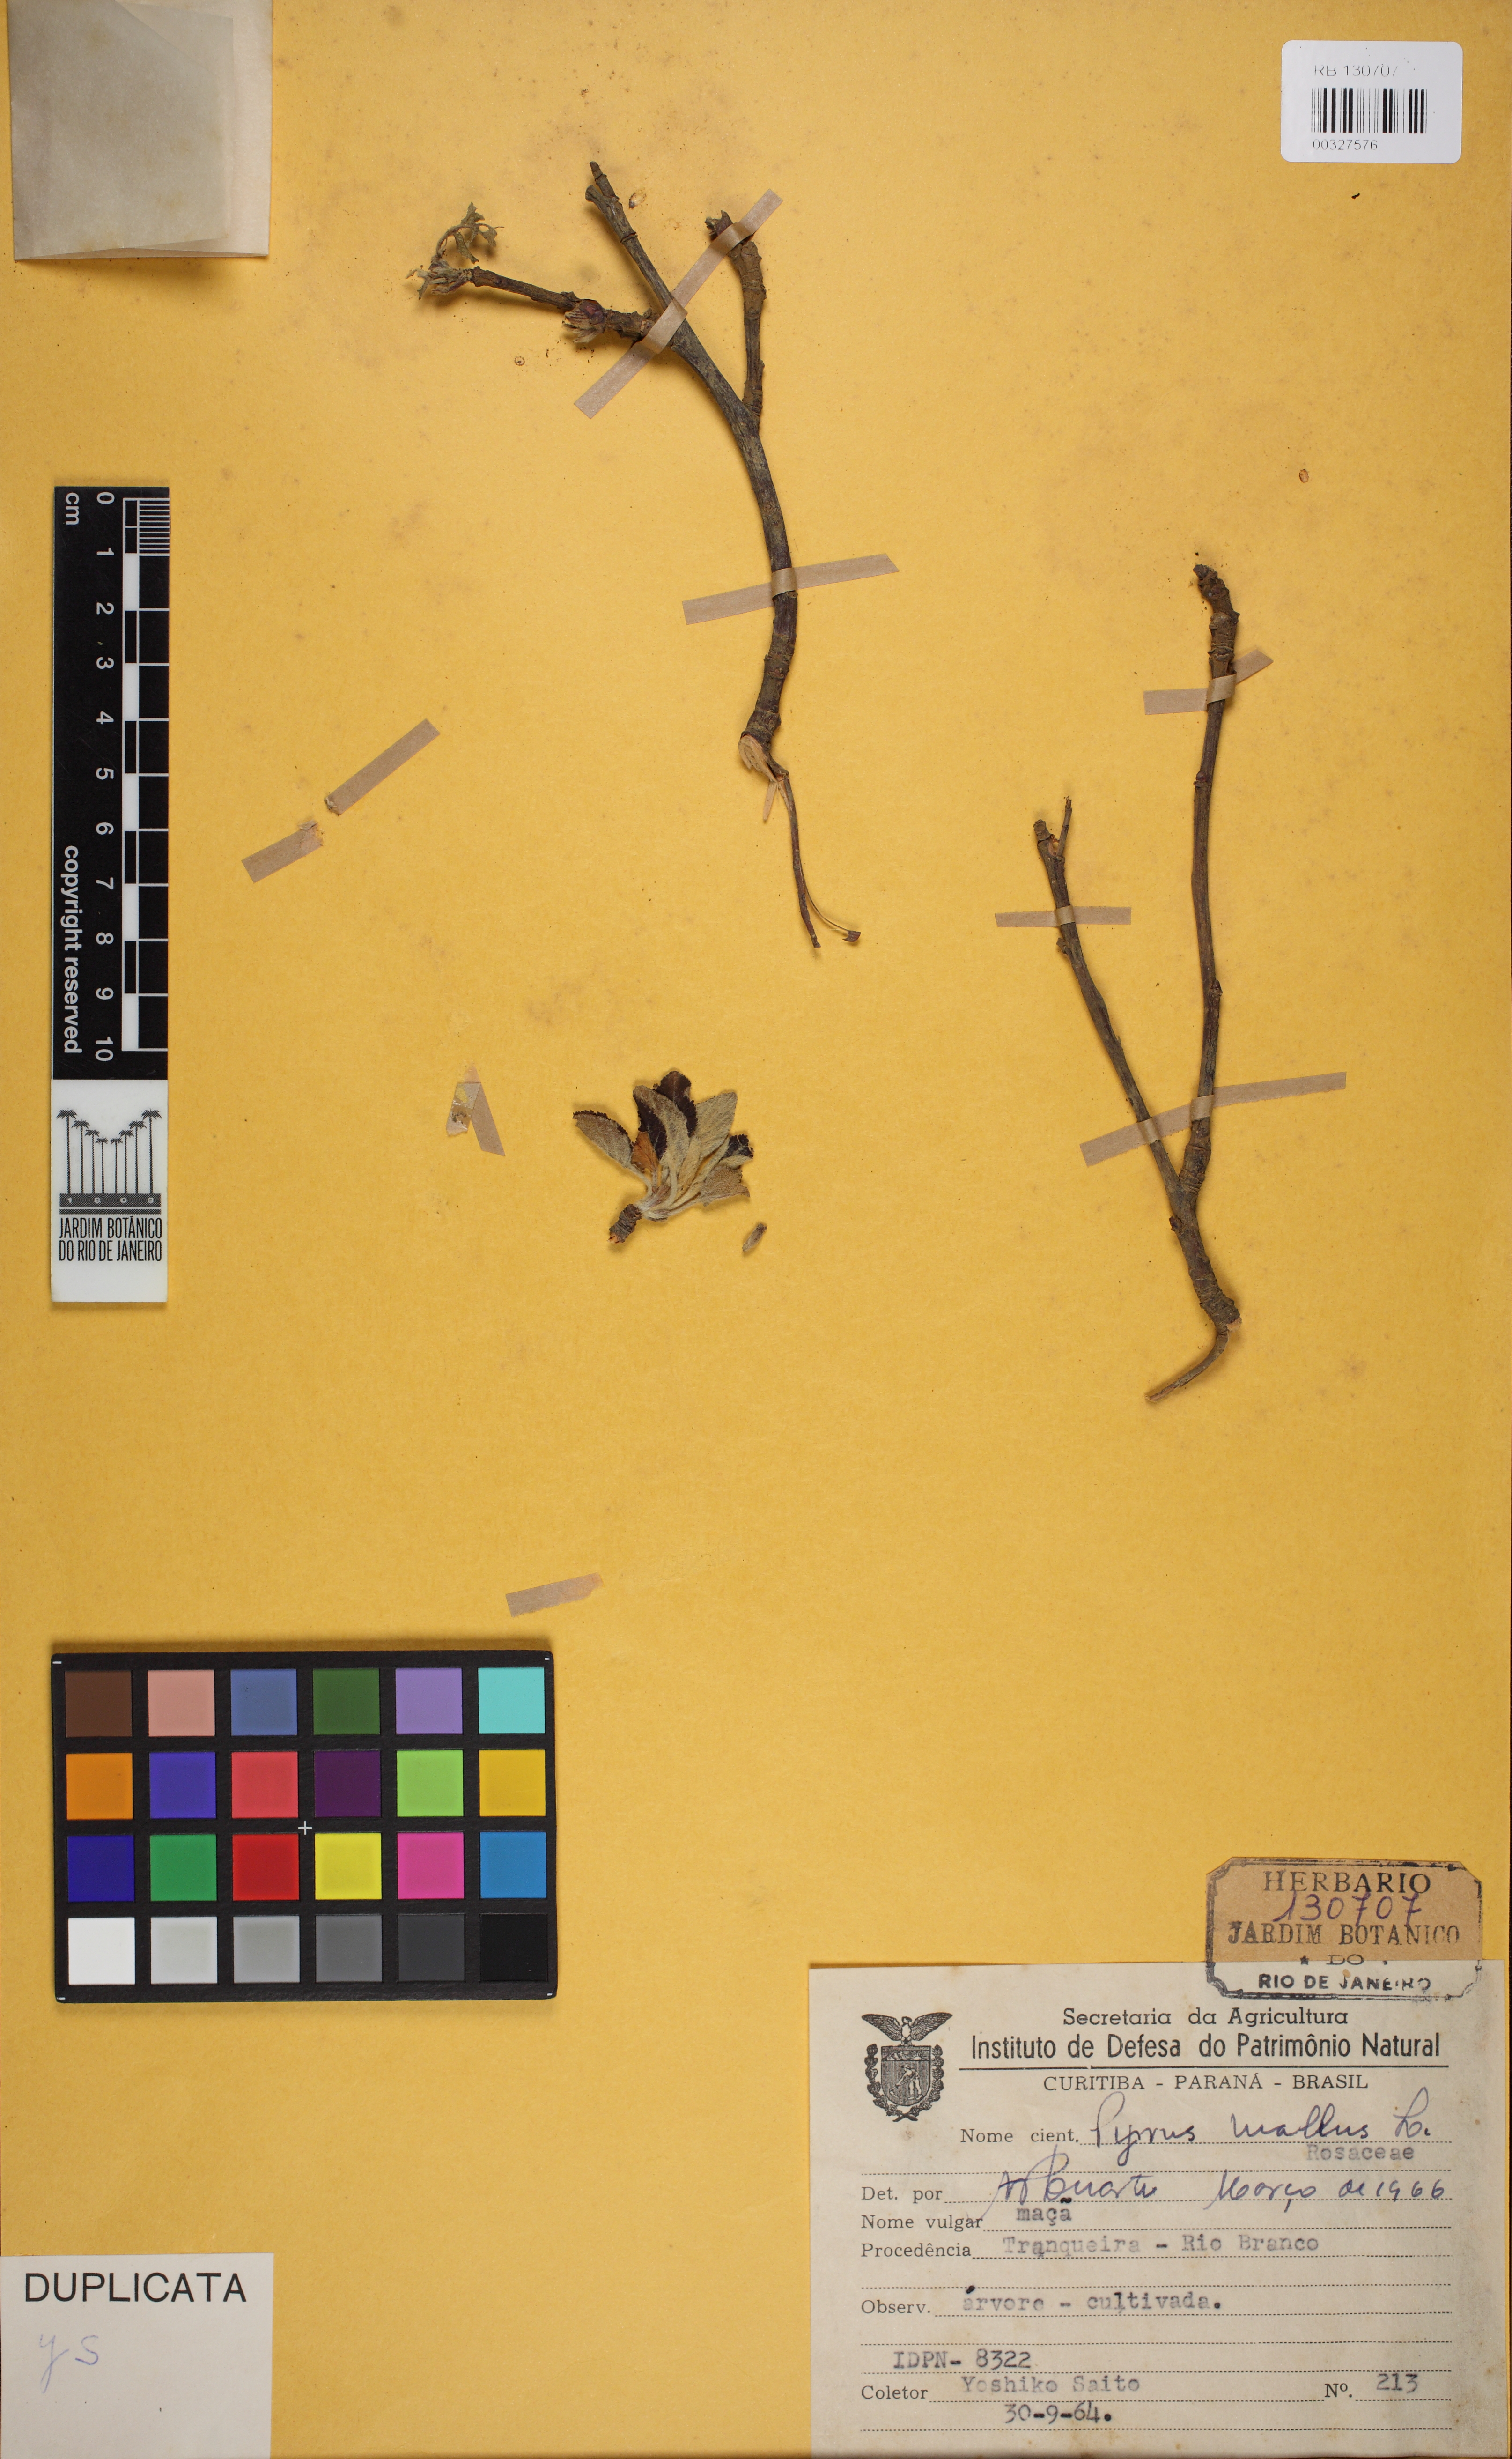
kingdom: Plantae
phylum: Tracheophyta
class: Magnoliopsida
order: Rosales
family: Rosaceae
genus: Malus
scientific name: Malus domestica
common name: Apple
